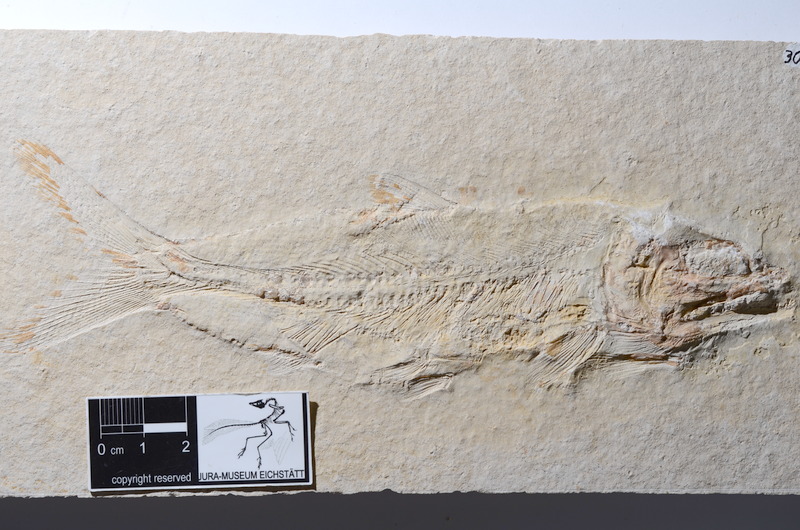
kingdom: Animalia
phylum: Chordata
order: Amiiformes
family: Caturidae
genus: Caturus
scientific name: Caturus furcatus
